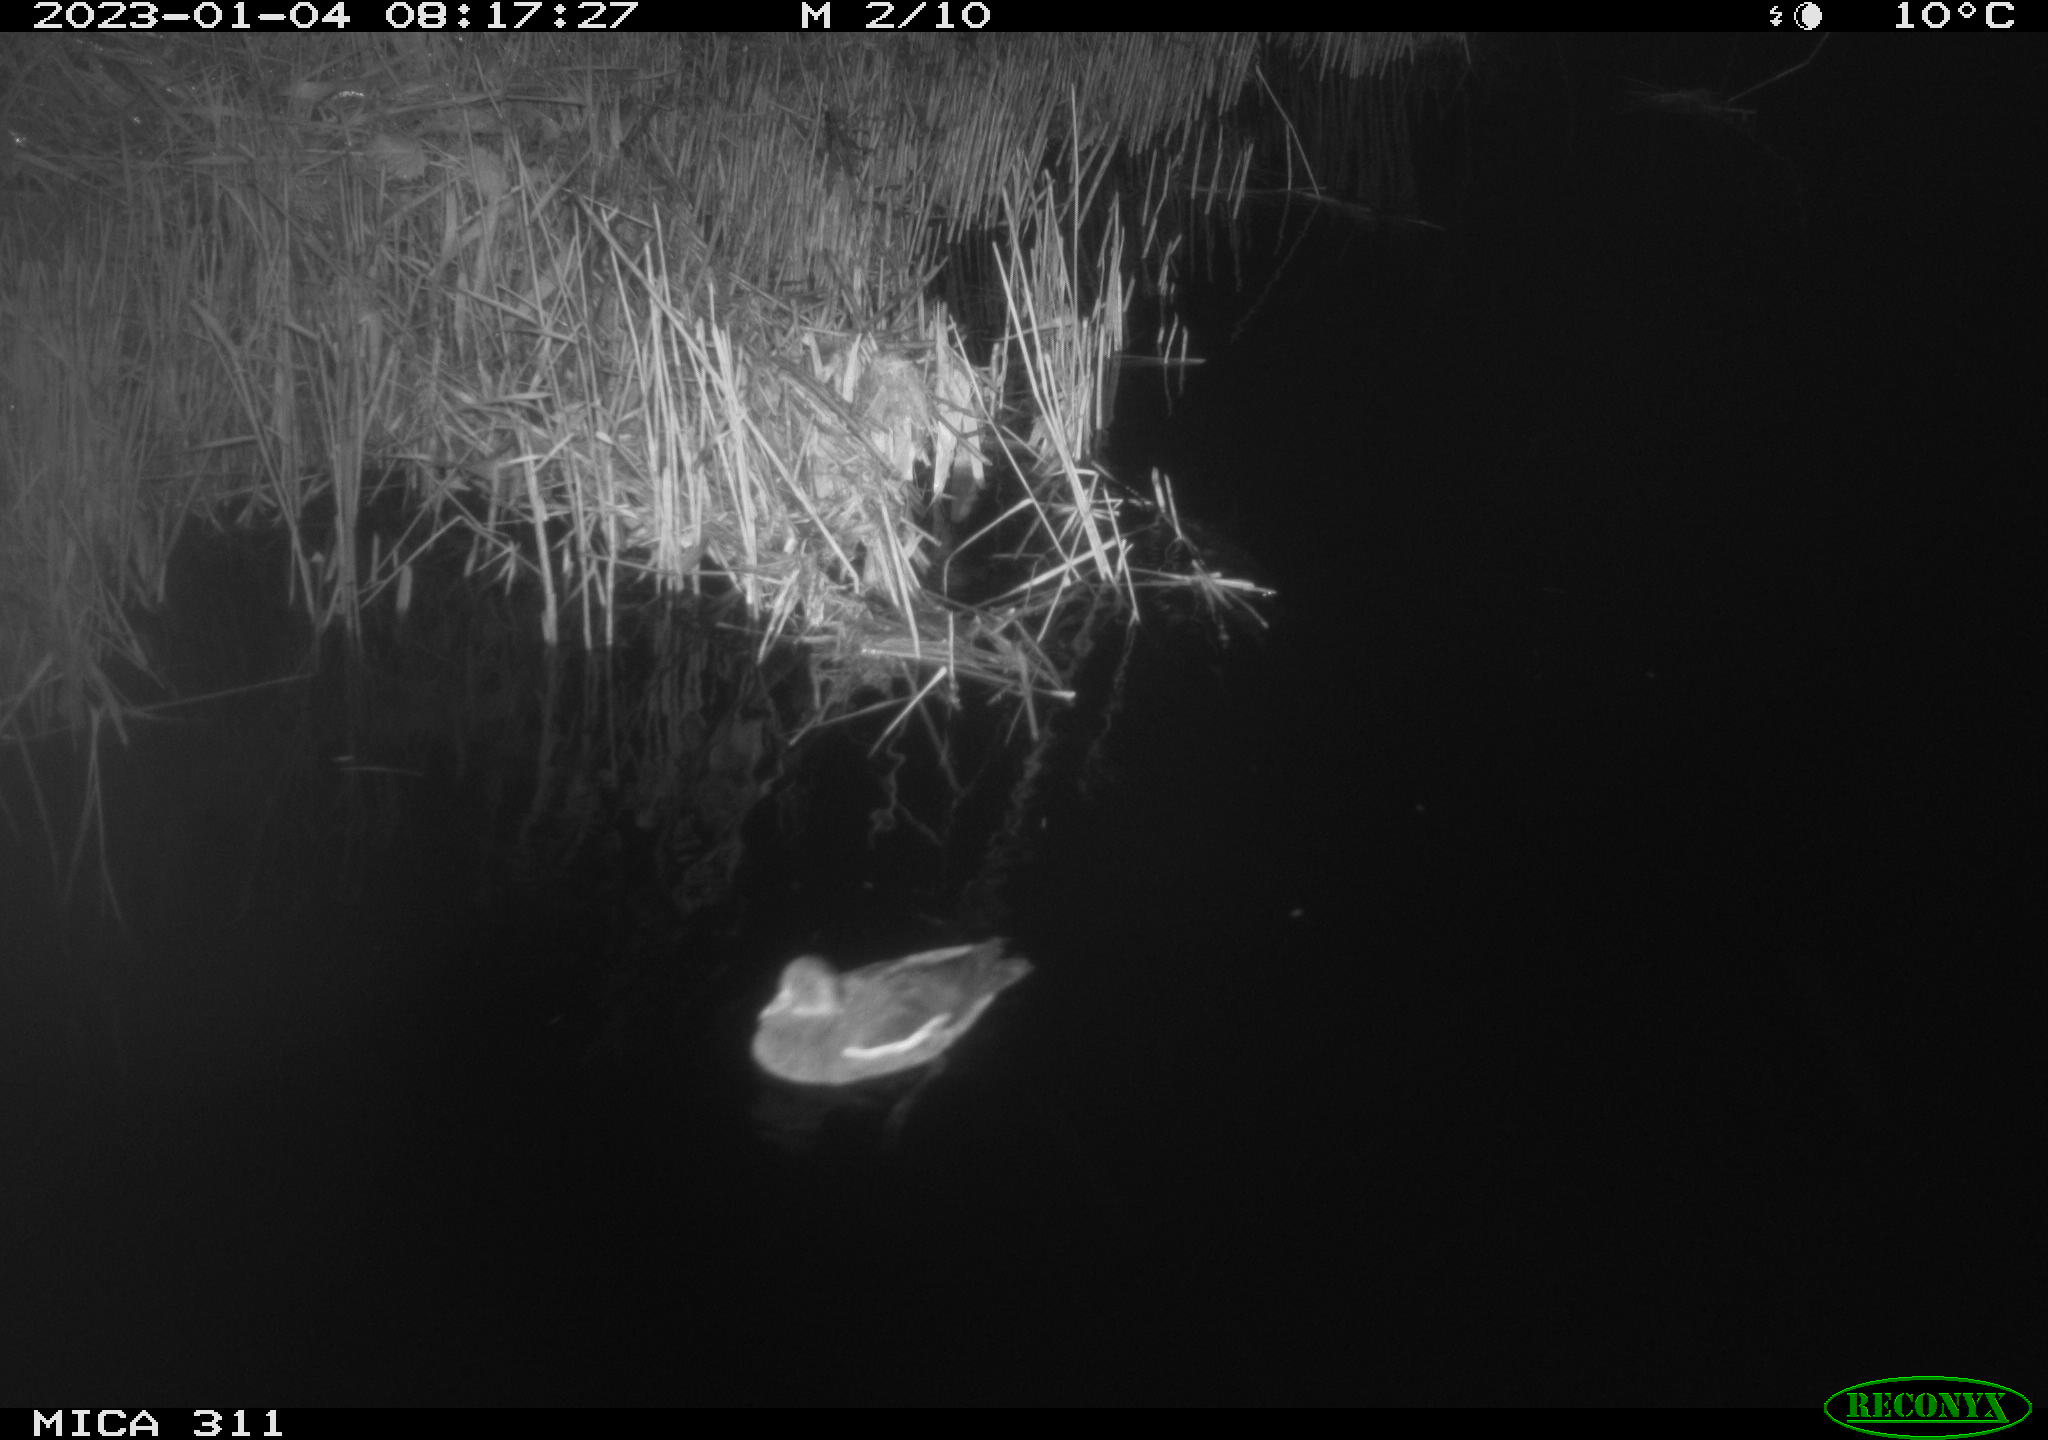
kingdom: Animalia
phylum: Chordata
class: Aves
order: Gruiformes
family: Rallidae
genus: Gallinula
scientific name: Gallinula chloropus
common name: Common moorhen
